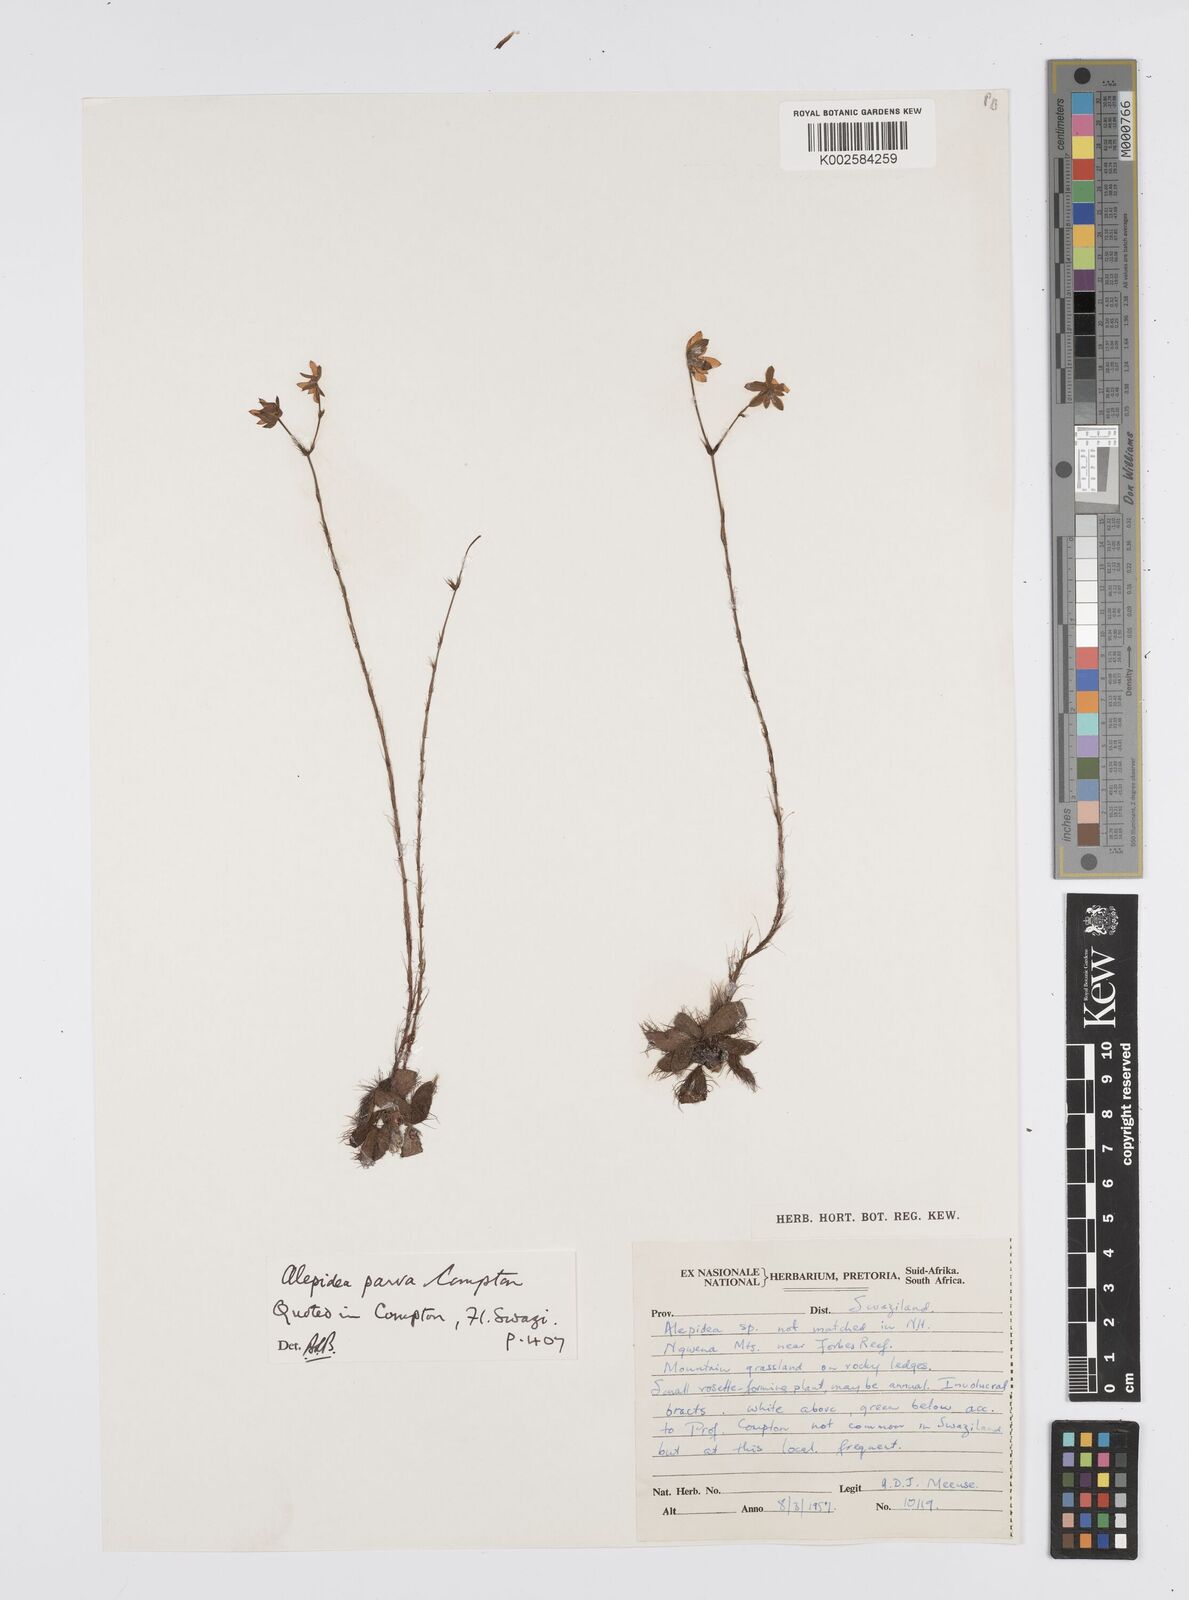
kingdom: Plantae
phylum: Tracheophyta
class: Magnoliopsida
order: Apiales
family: Apiaceae
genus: Alepidea
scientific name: Alepidea peduncularis
